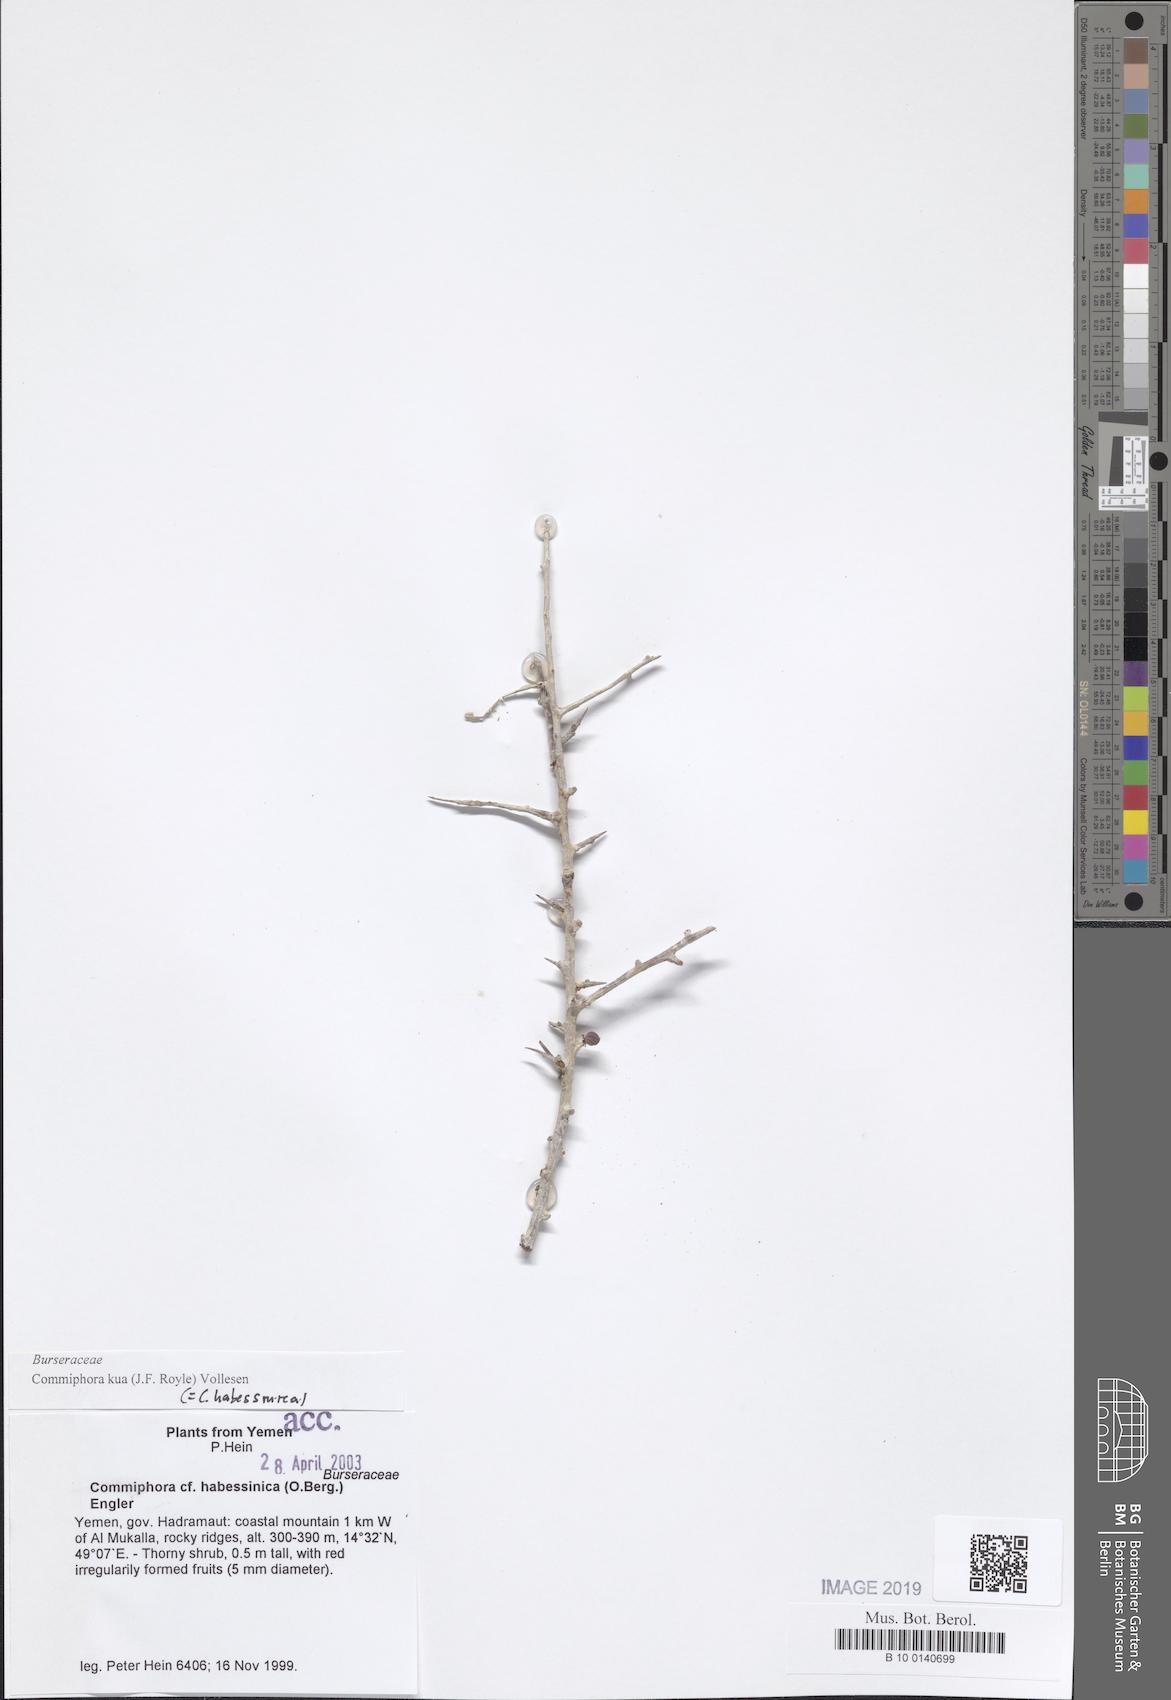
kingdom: Plantae
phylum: Tracheophyta
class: Magnoliopsida
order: Sapindales
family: Burseraceae
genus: Commiphora
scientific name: Commiphora kua
